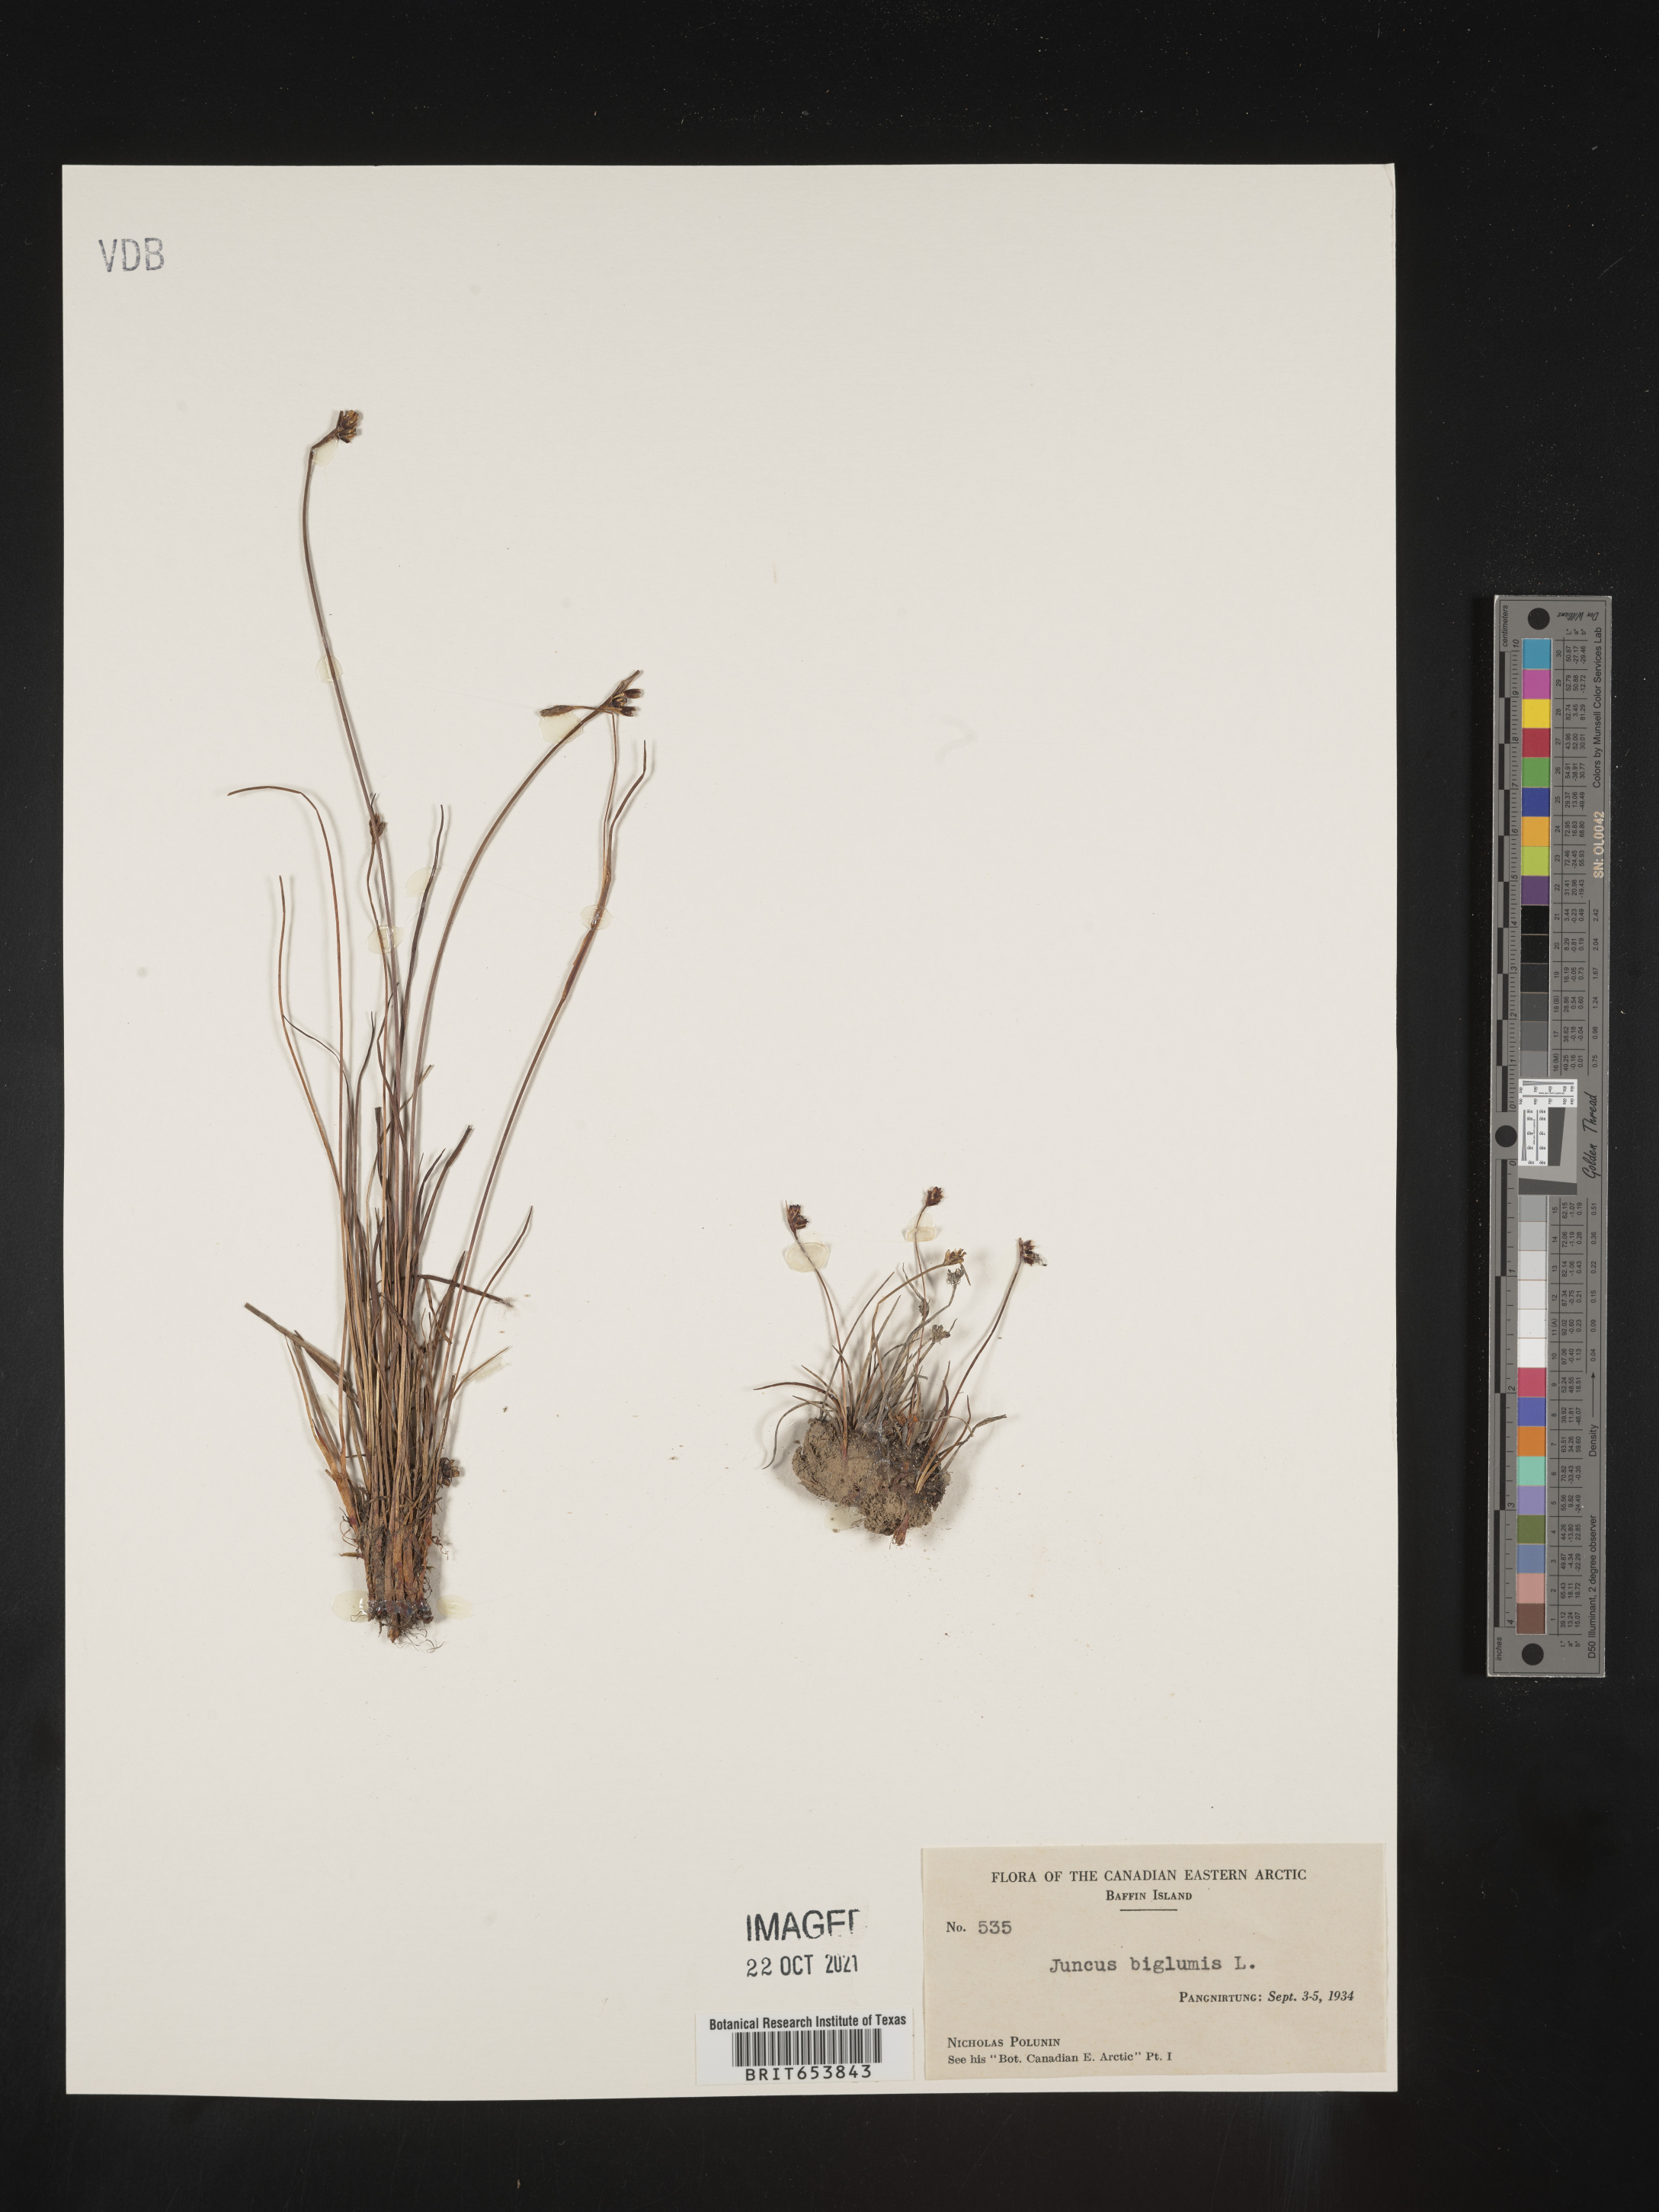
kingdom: Plantae
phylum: Tracheophyta
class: Liliopsida
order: Poales
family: Juncaceae
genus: Juncus
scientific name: Juncus
